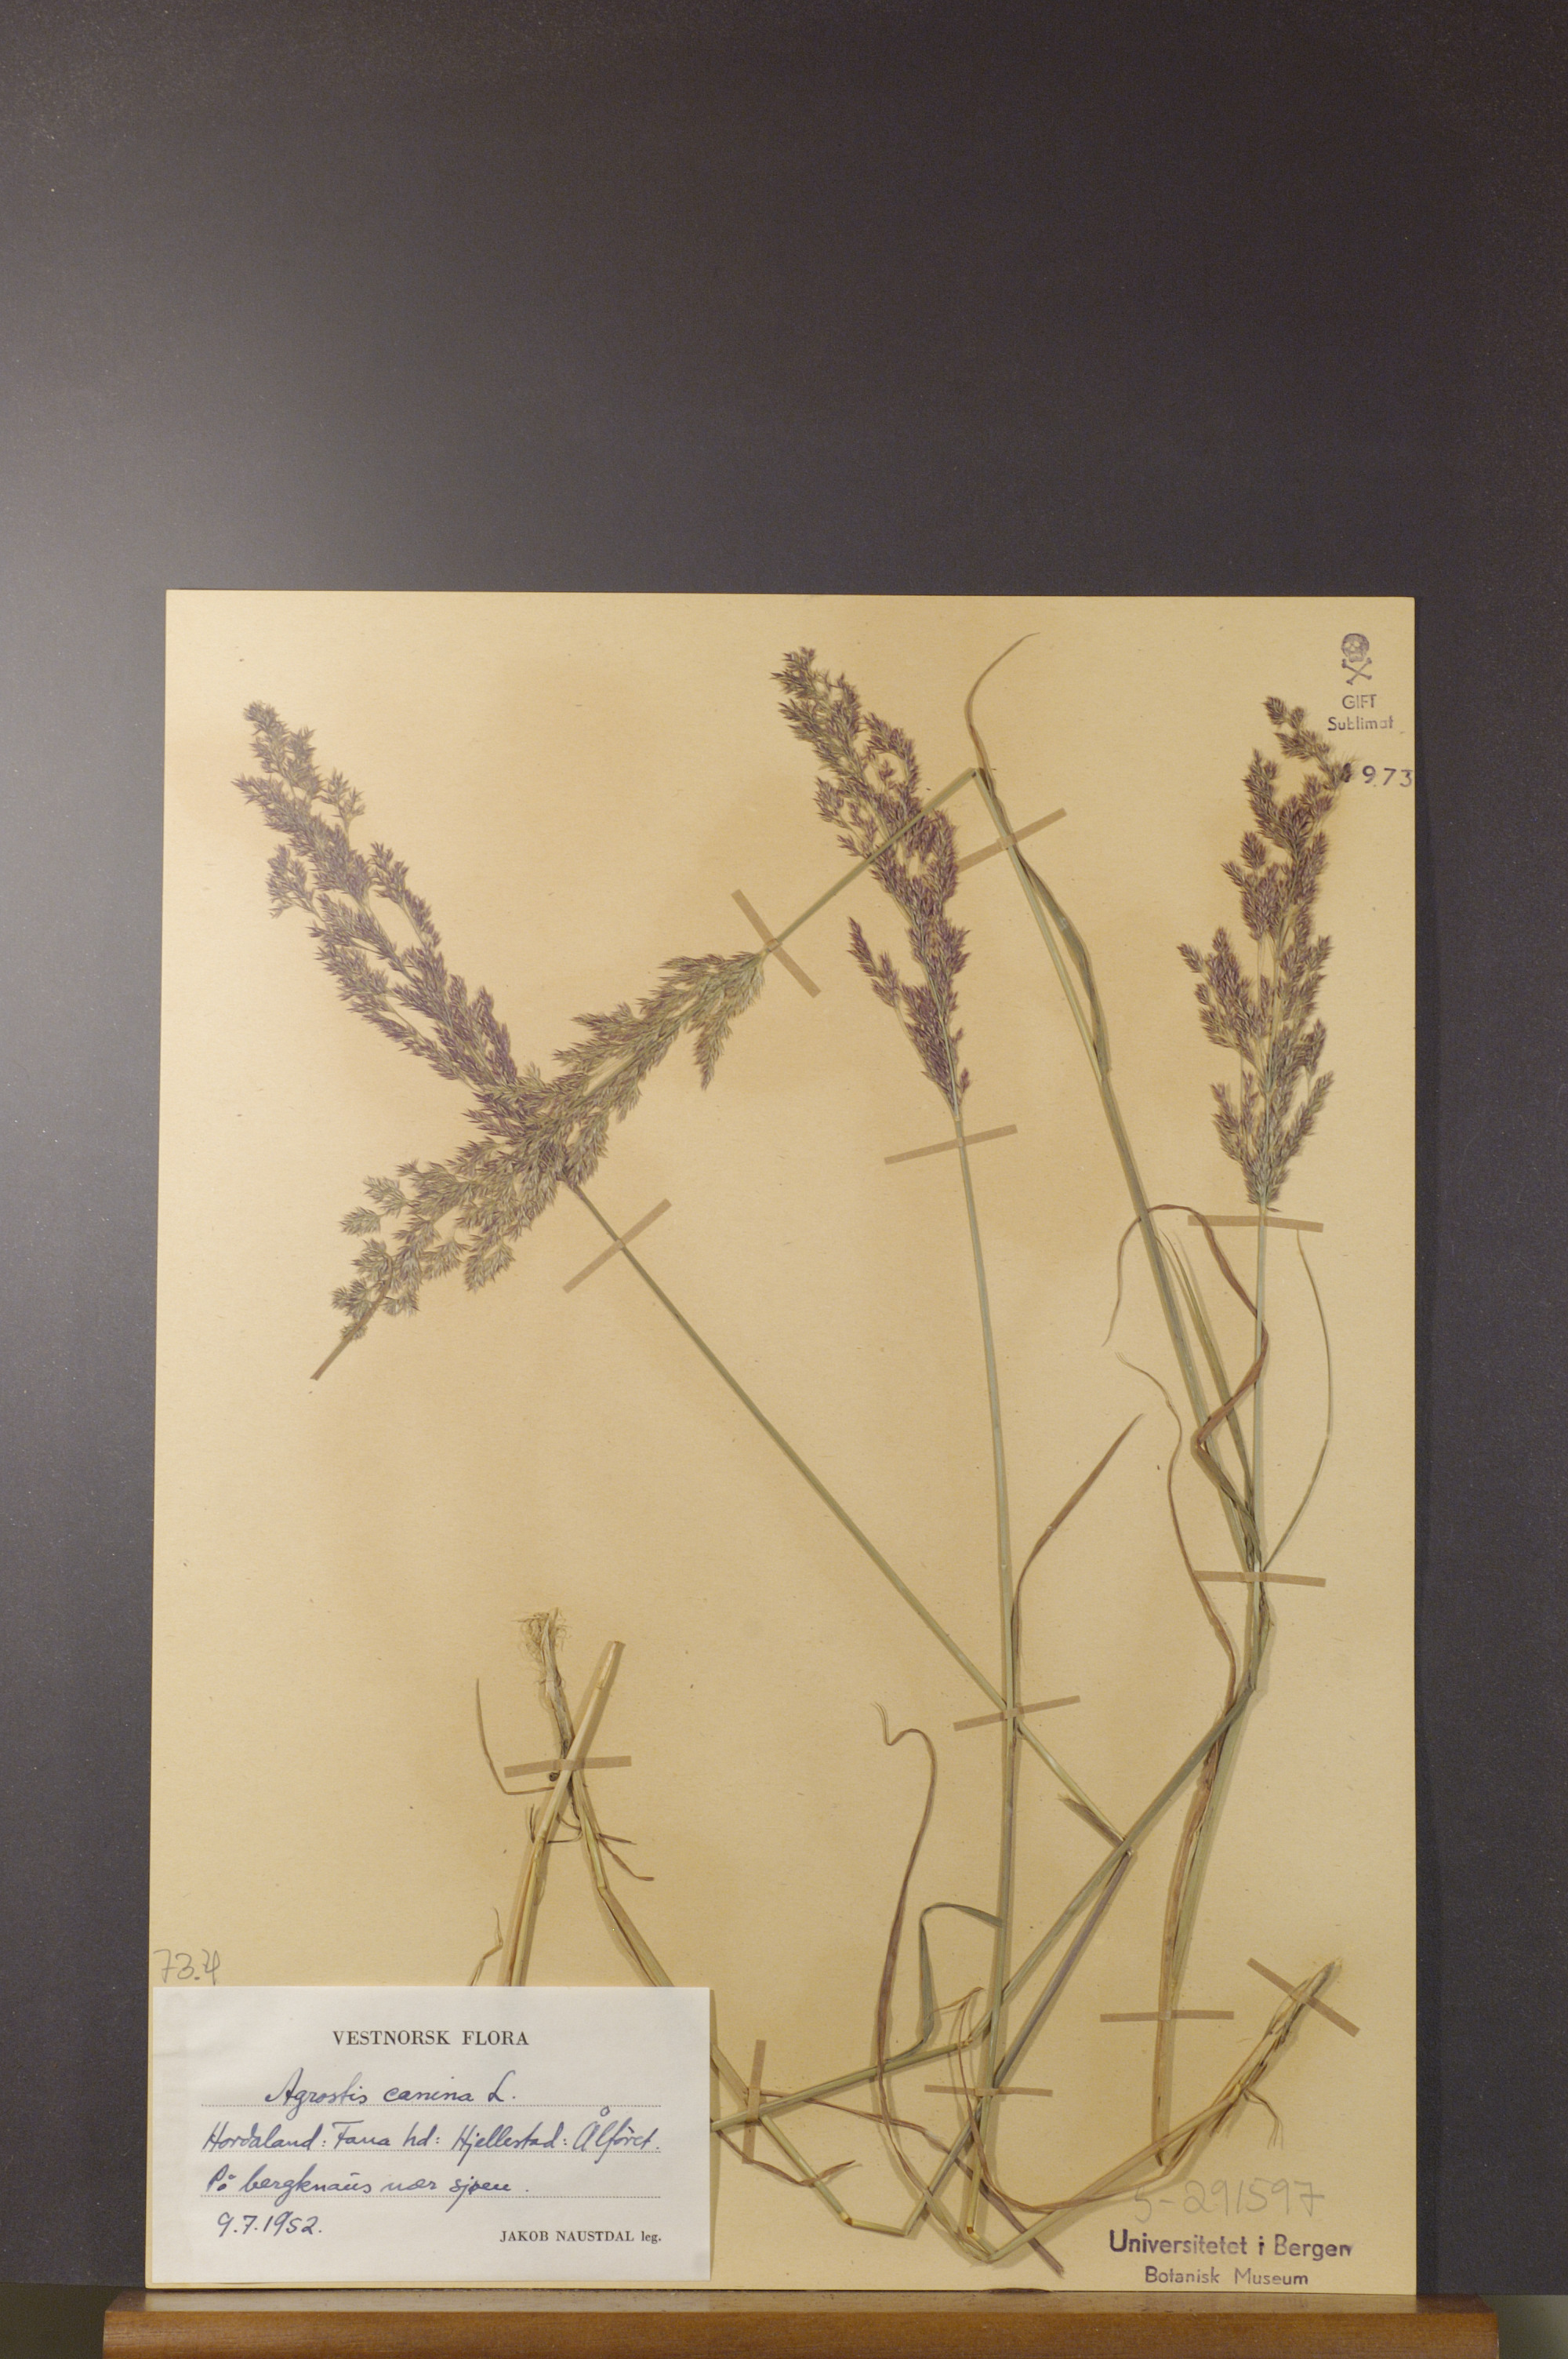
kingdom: Plantae
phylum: Tracheophyta
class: Liliopsida
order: Poales
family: Poaceae
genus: Agrostis
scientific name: Agrostis canina
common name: Velvet bent
